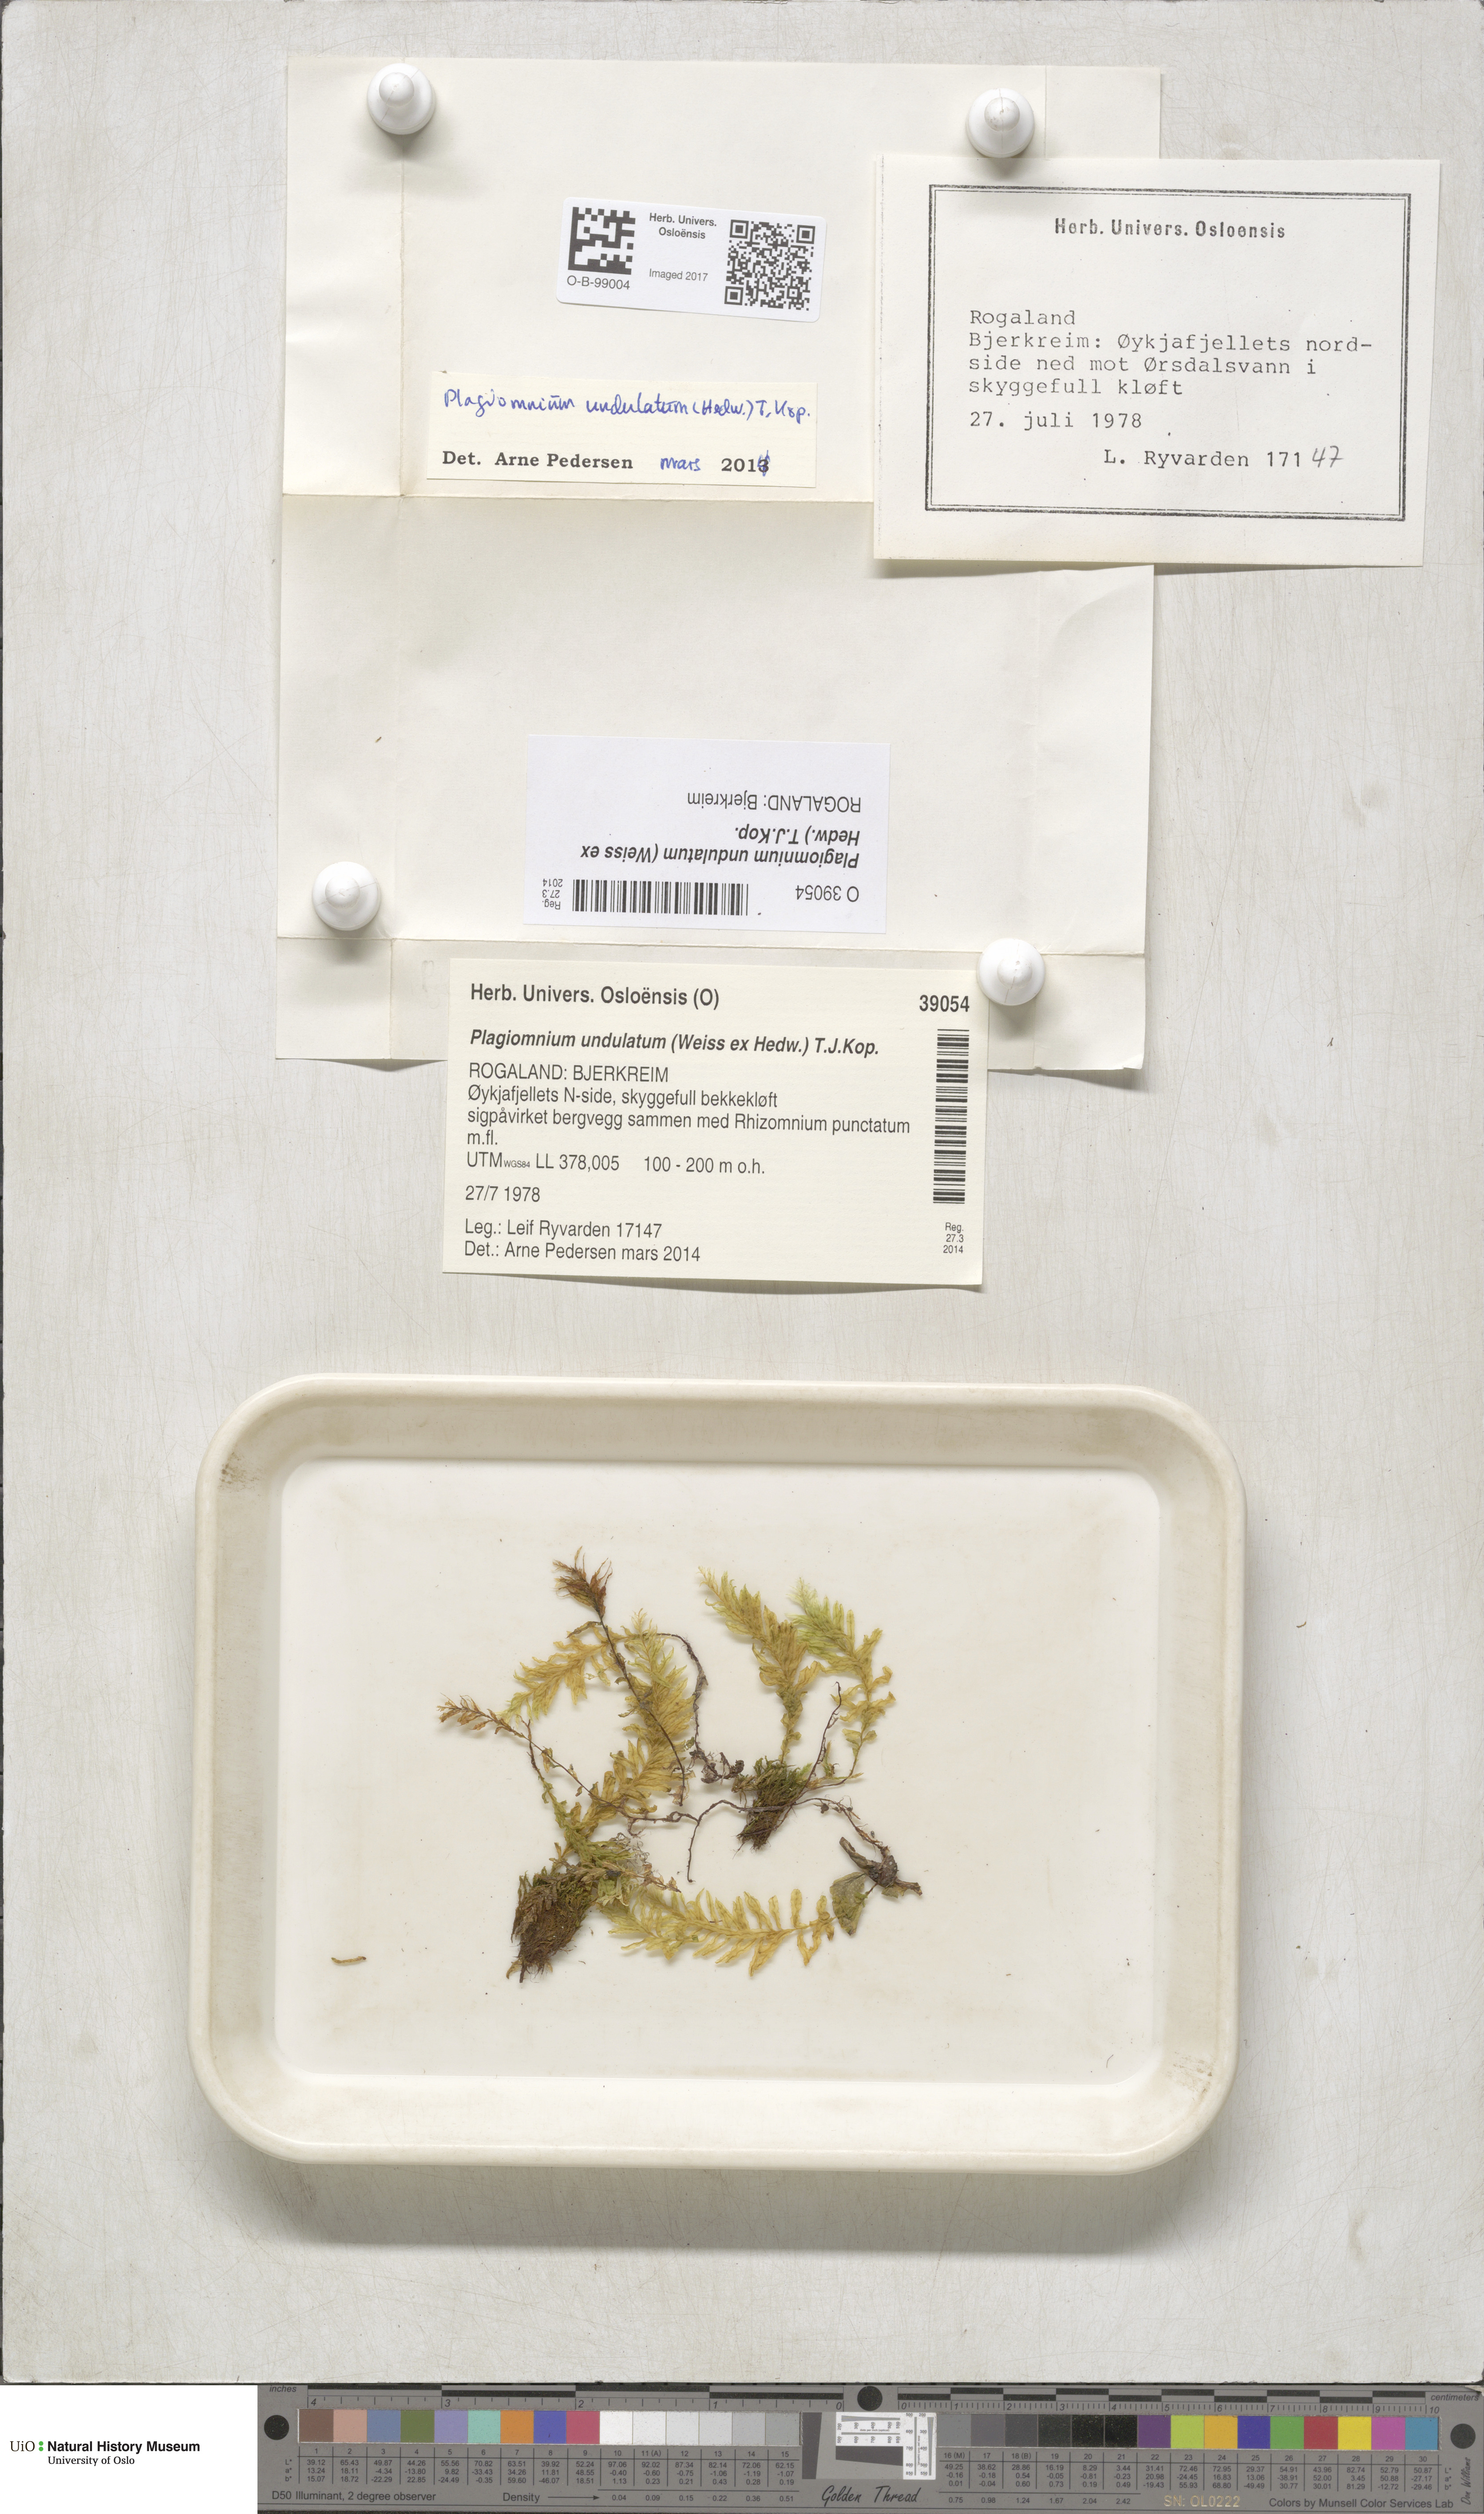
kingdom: Plantae
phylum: Bryophyta
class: Bryopsida
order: Bryales
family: Mniaceae
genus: Plagiomnium
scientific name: Plagiomnium undulatum
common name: Hart's-tongue thyme-moss
